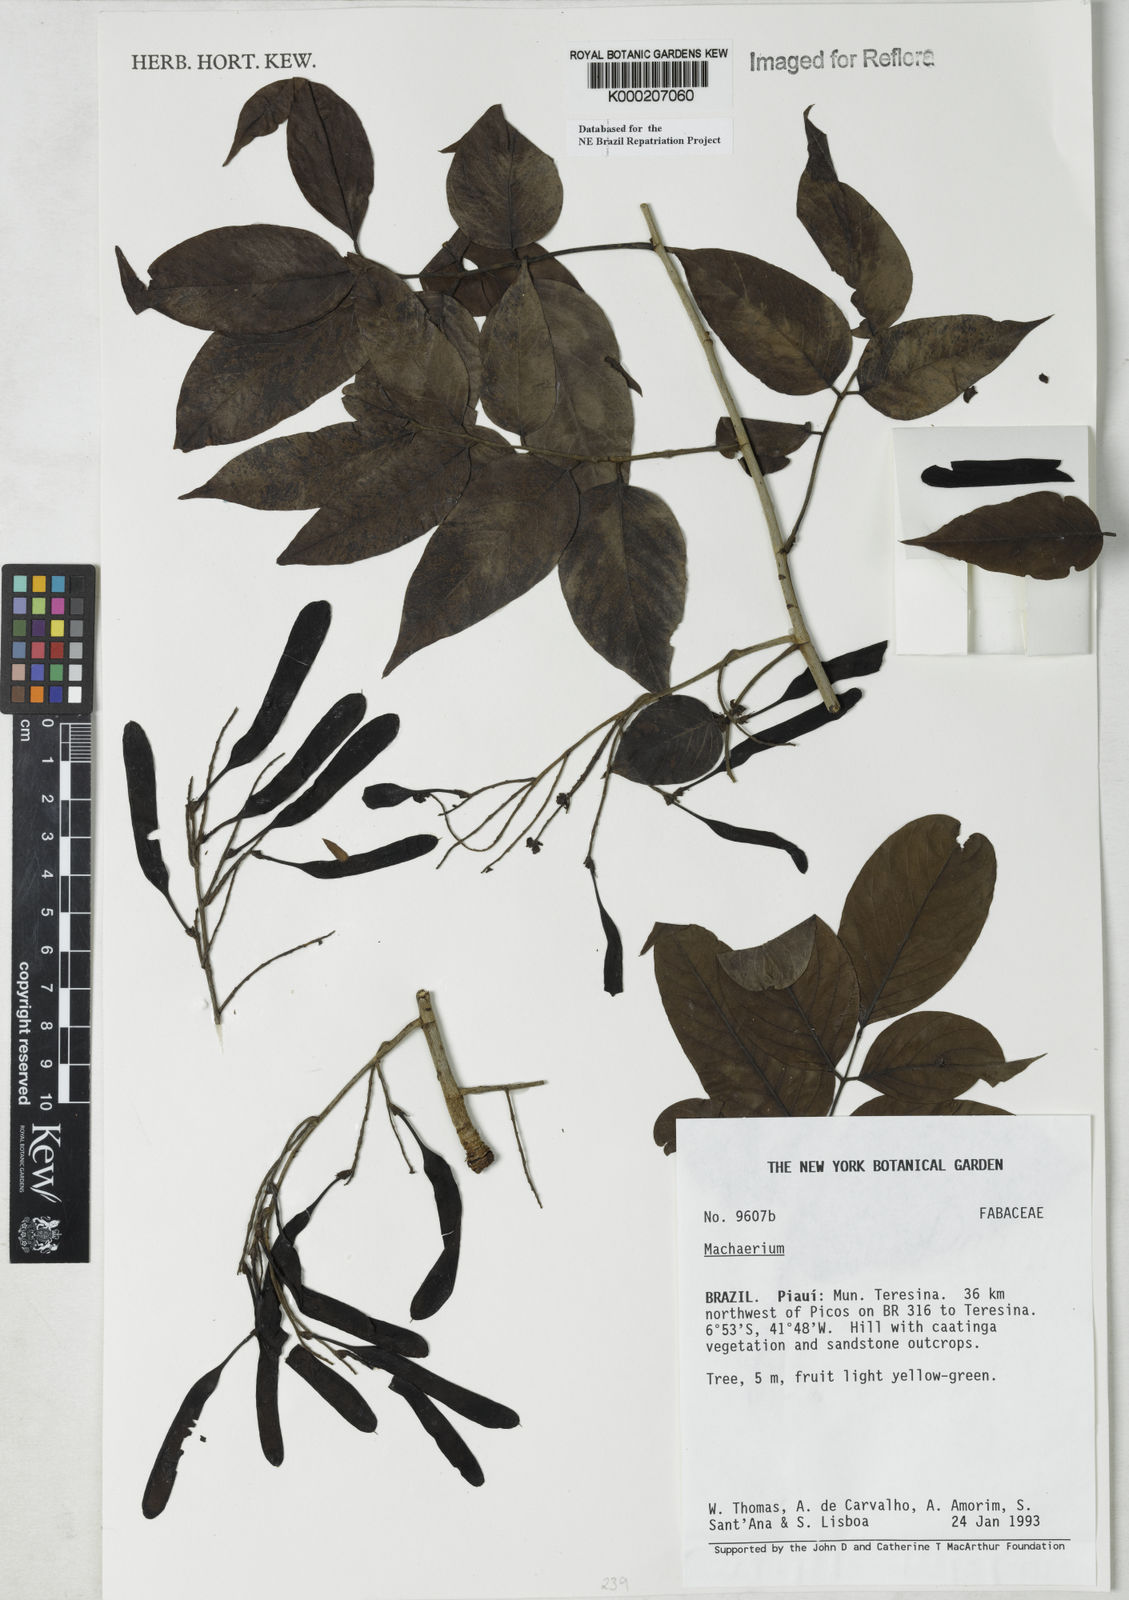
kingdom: Plantae
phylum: Tracheophyta
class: Magnoliopsida
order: Fabales
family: Fabaceae
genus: Machaerium
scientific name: Machaerium
